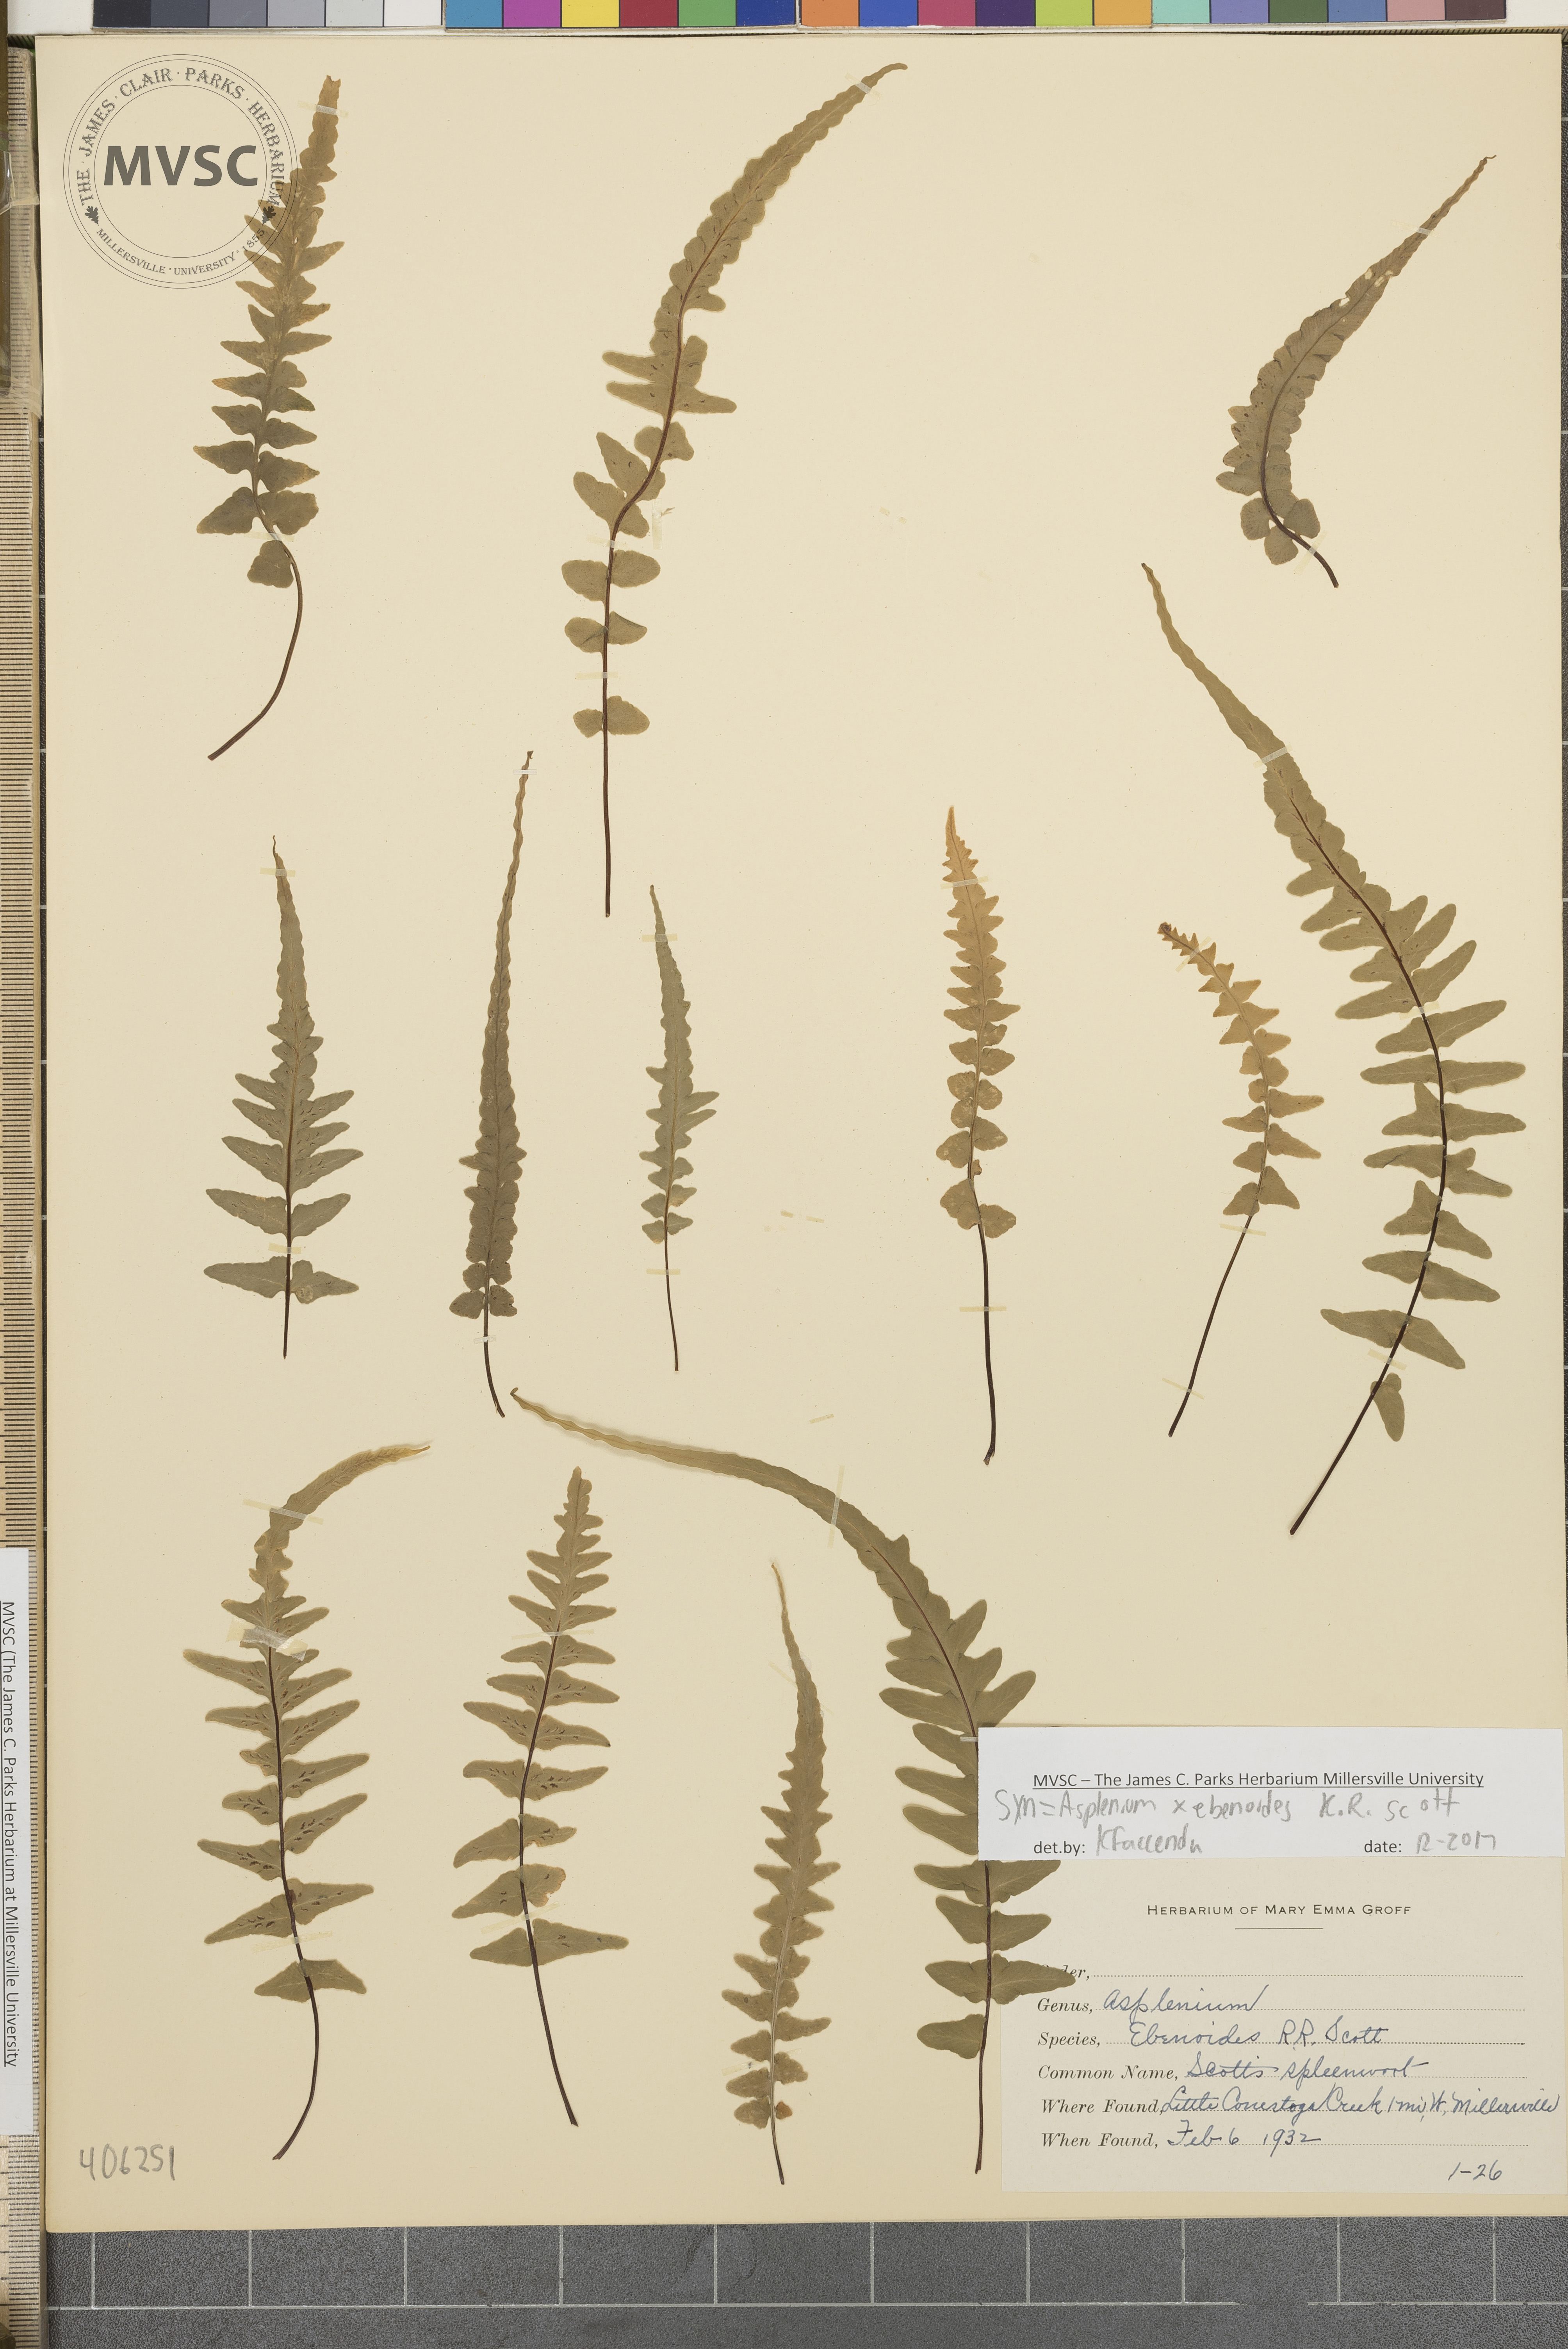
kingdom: Plantae
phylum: Tracheophyta
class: Polypodiopsida
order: Polypodiales
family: Aspleniaceae
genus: Asplenium
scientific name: Asplenium ebenoides
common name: Dragon-tail fern
